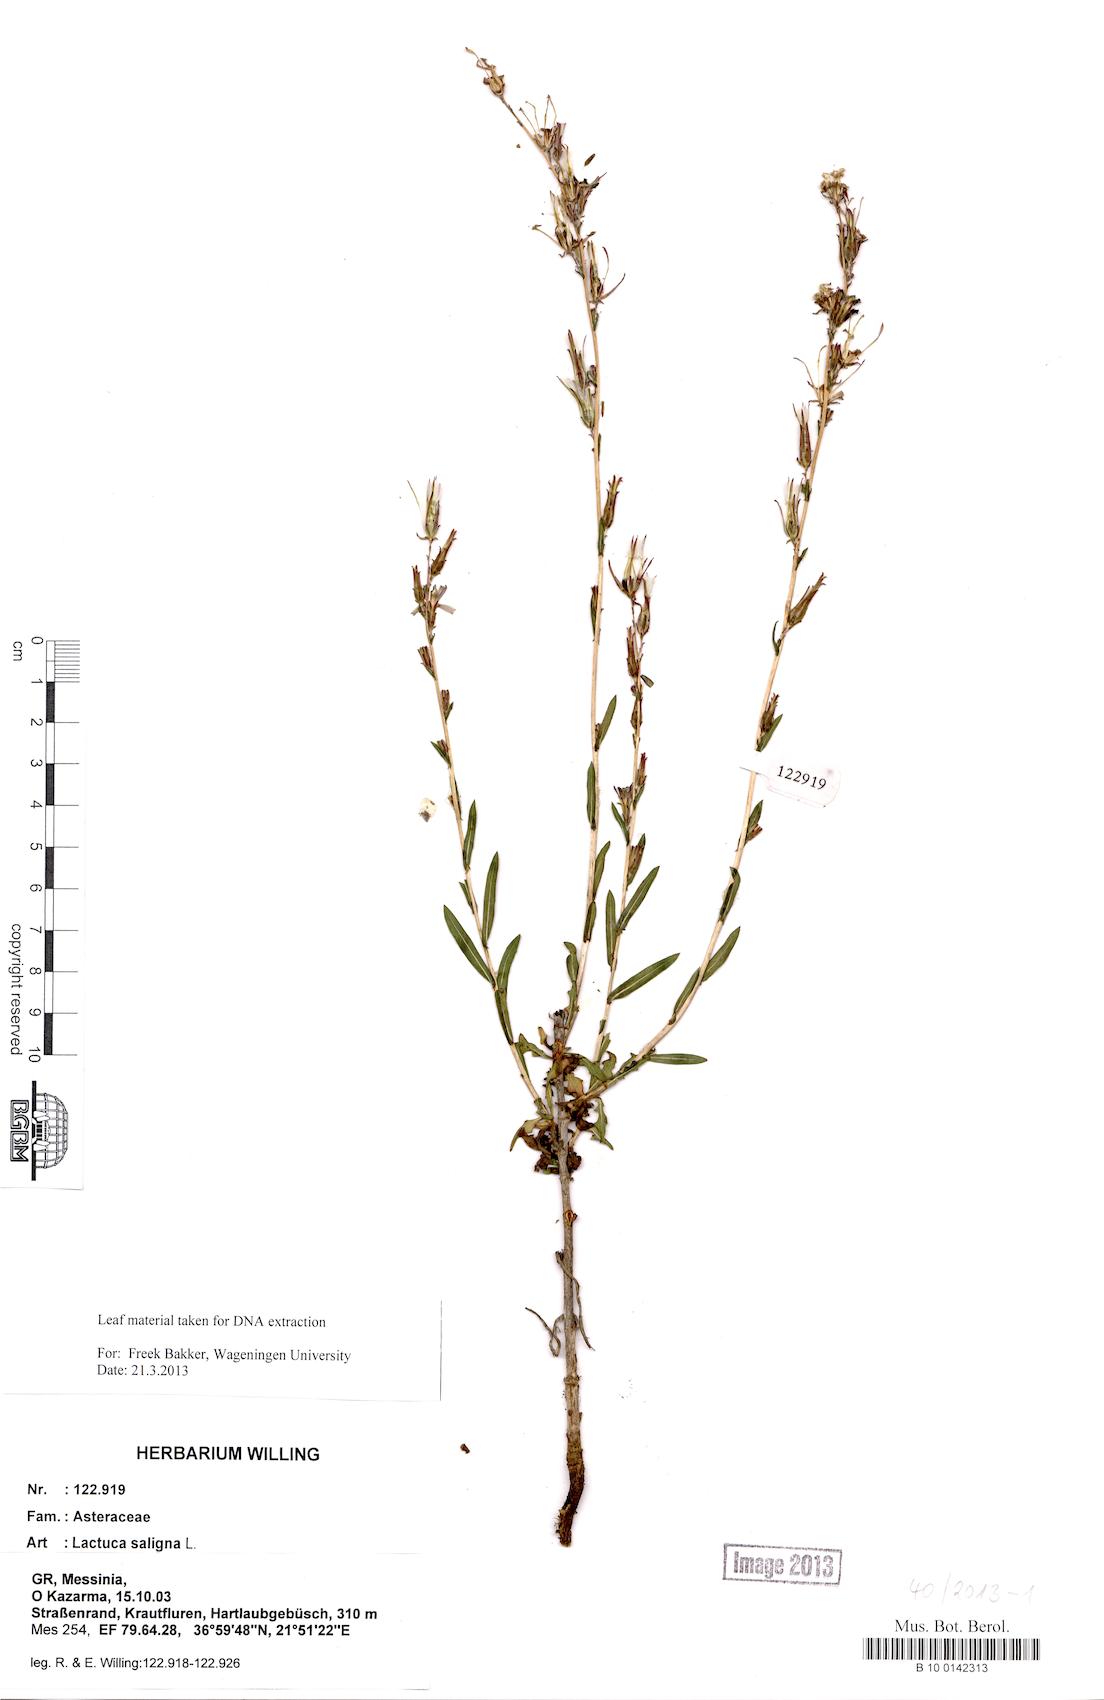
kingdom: Plantae
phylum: Tracheophyta
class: Magnoliopsida
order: Asterales
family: Asteraceae
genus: Lactuca
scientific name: Lactuca saligna
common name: Wild lettuce
